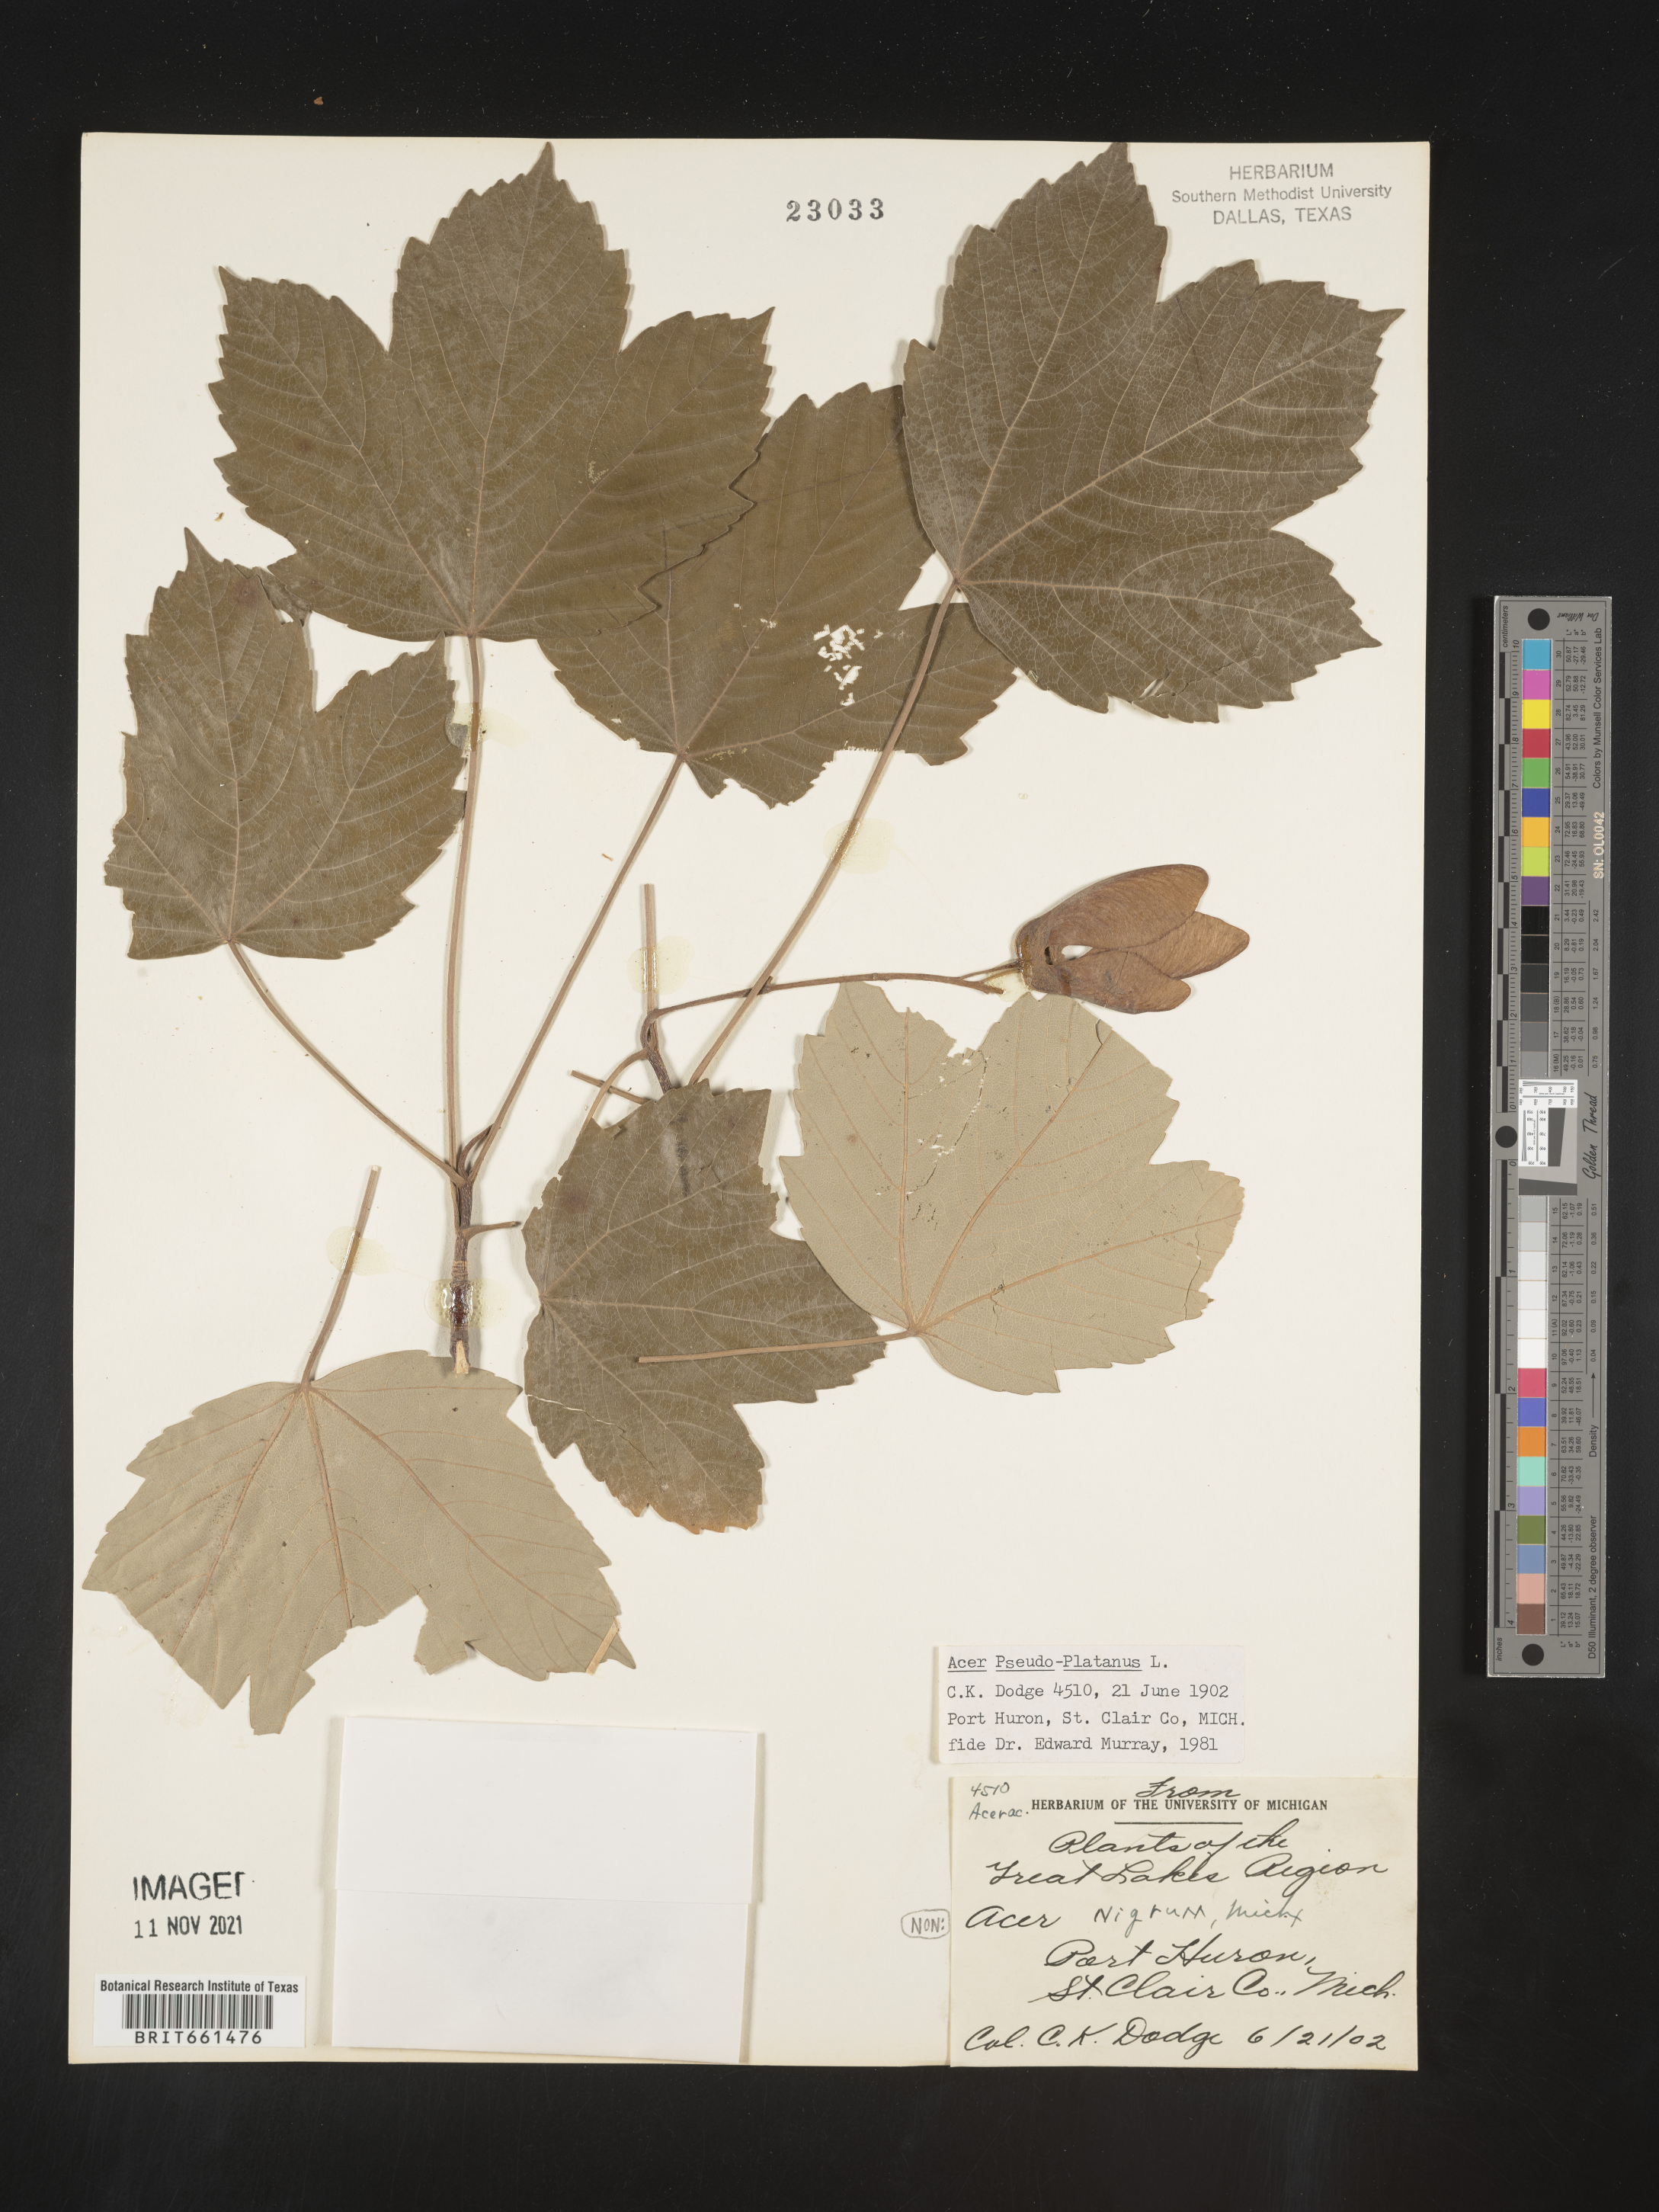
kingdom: Plantae
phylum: Tracheophyta
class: Magnoliopsida
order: Sapindales
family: Sapindaceae
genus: Acer
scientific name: Acer
